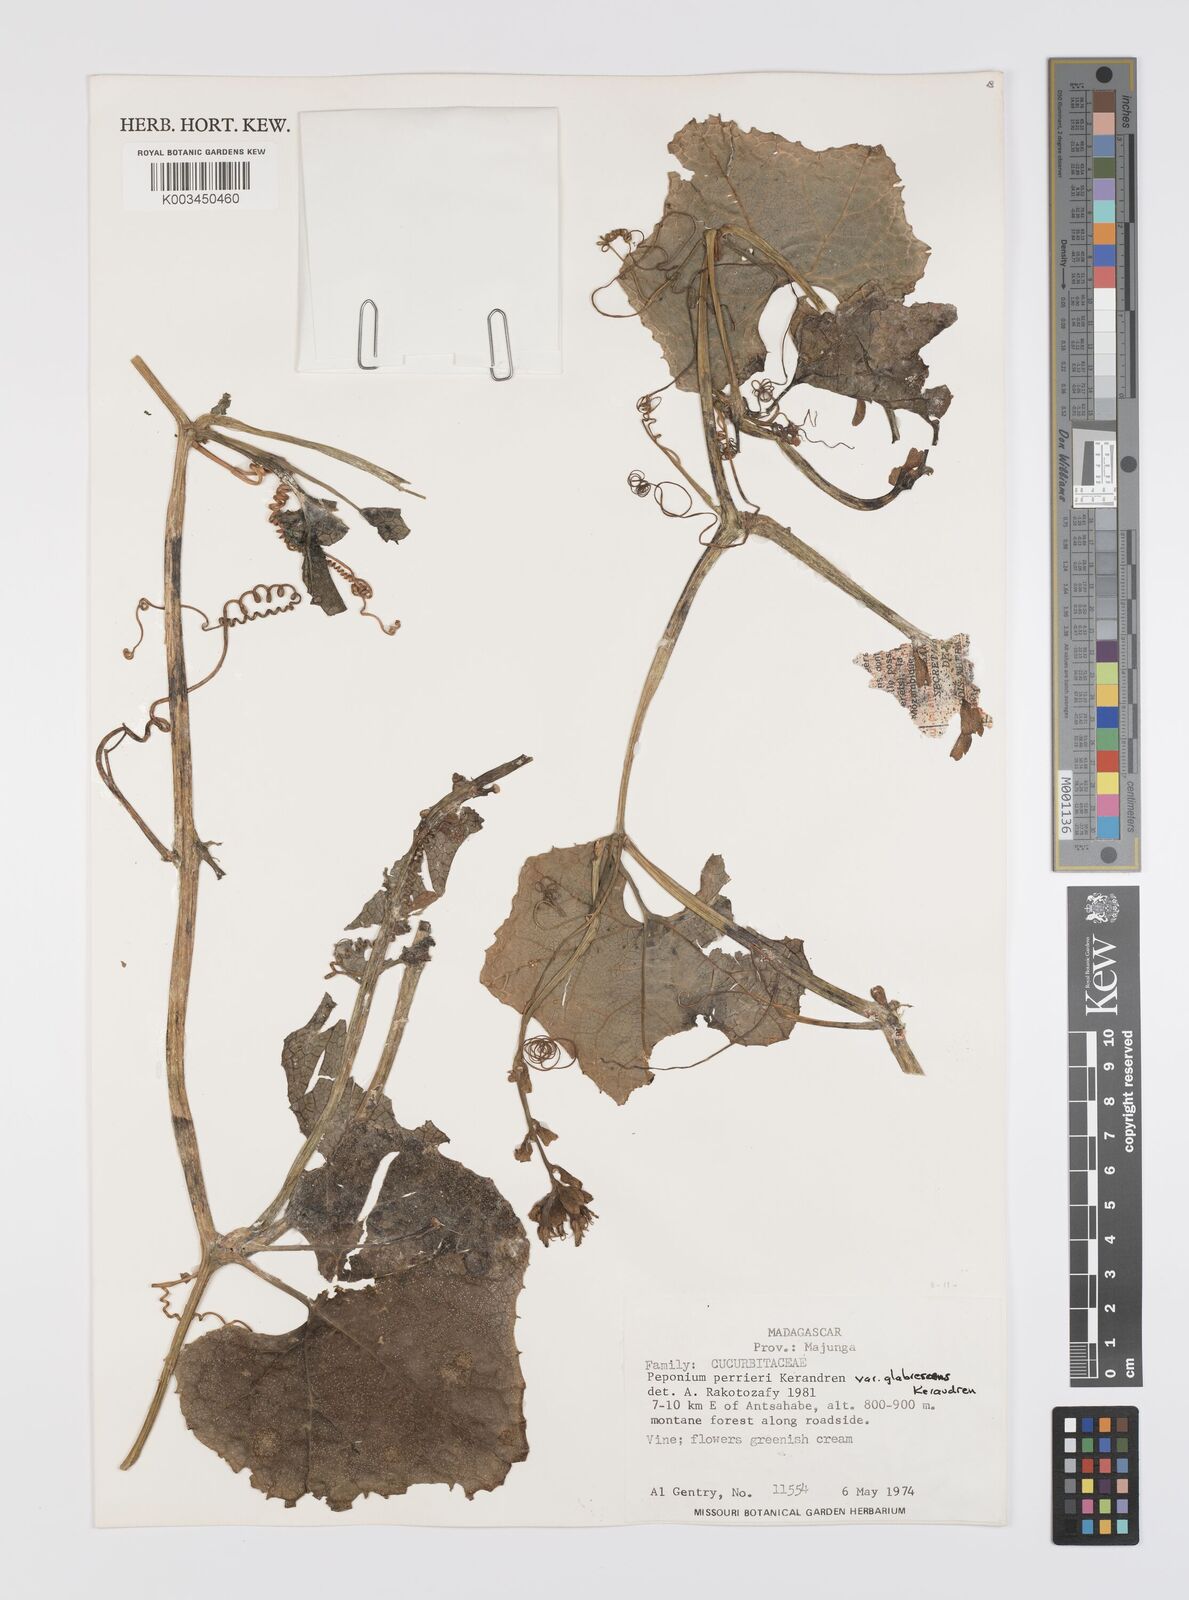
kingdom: Plantae
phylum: Tracheophyta
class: Magnoliopsida
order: Cucurbitales
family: Cucurbitaceae
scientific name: Cucurbitaceae
